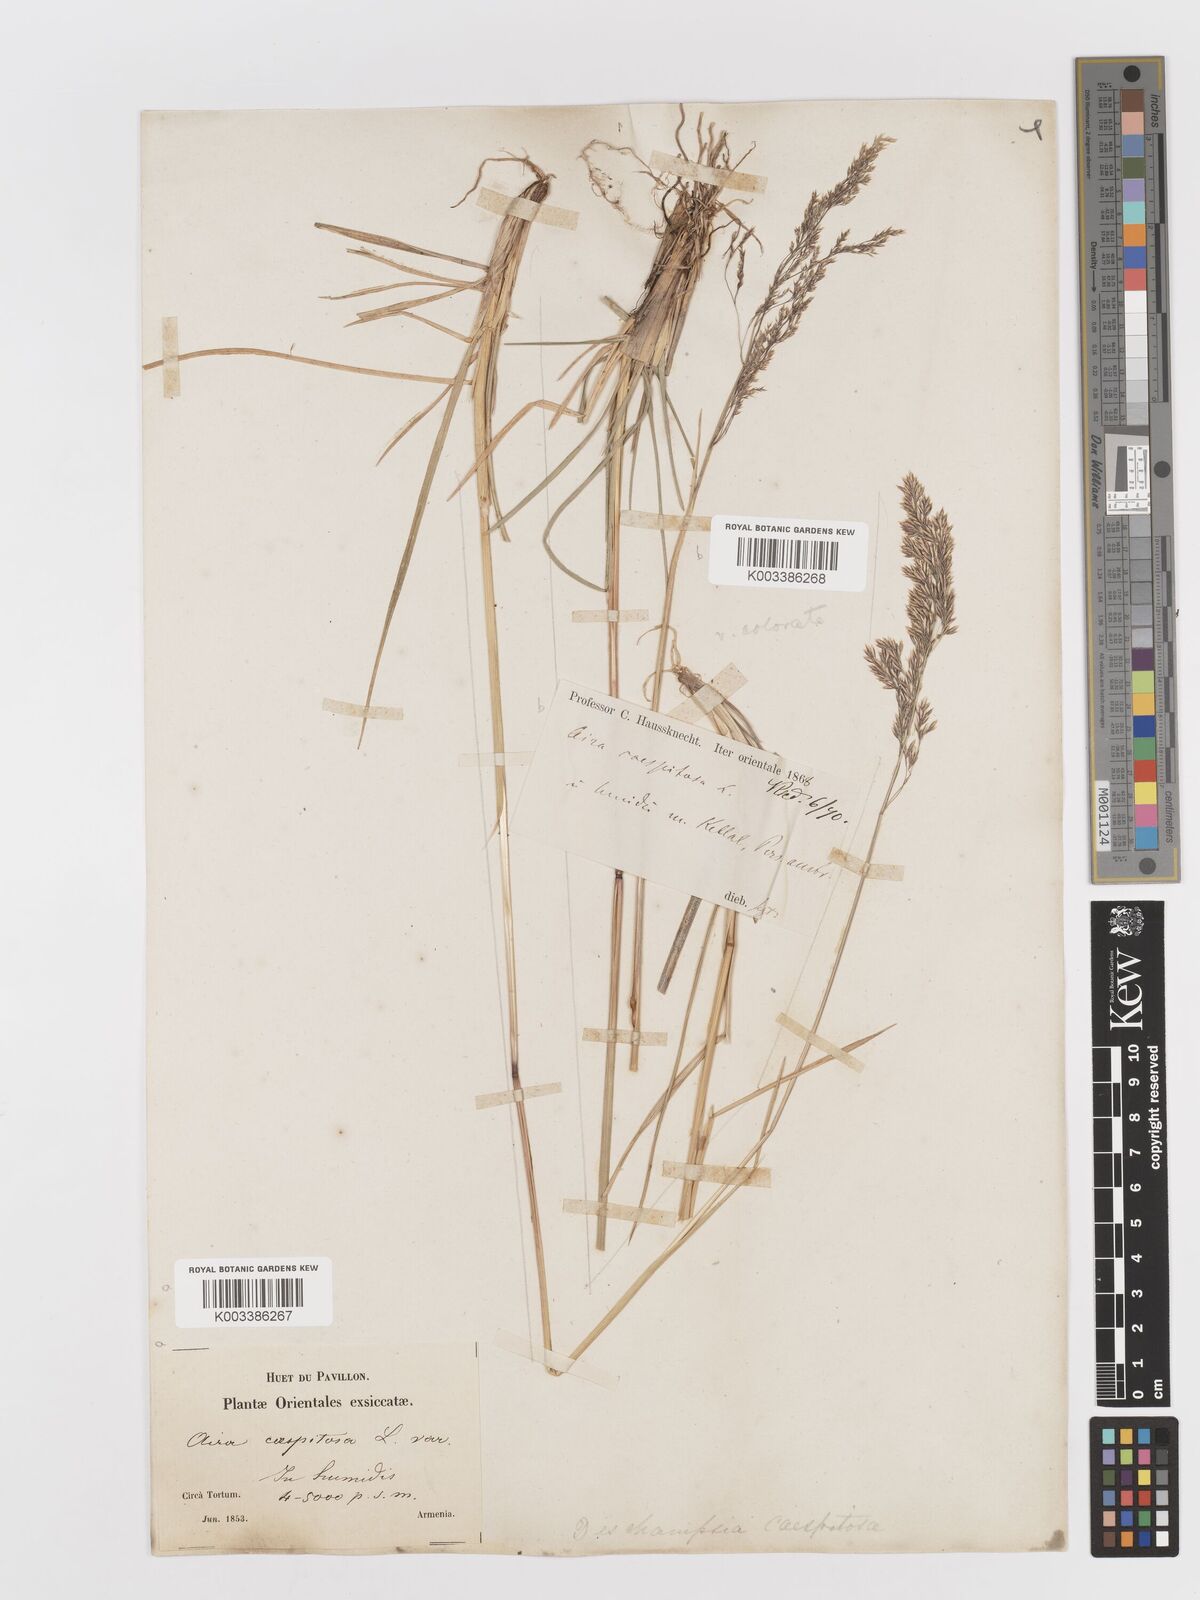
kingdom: Plantae
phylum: Tracheophyta
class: Liliopsida
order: Poales
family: Poaceae
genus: Deschampsia
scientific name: Deschampsia cespitosa
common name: Tufted hair-grass
